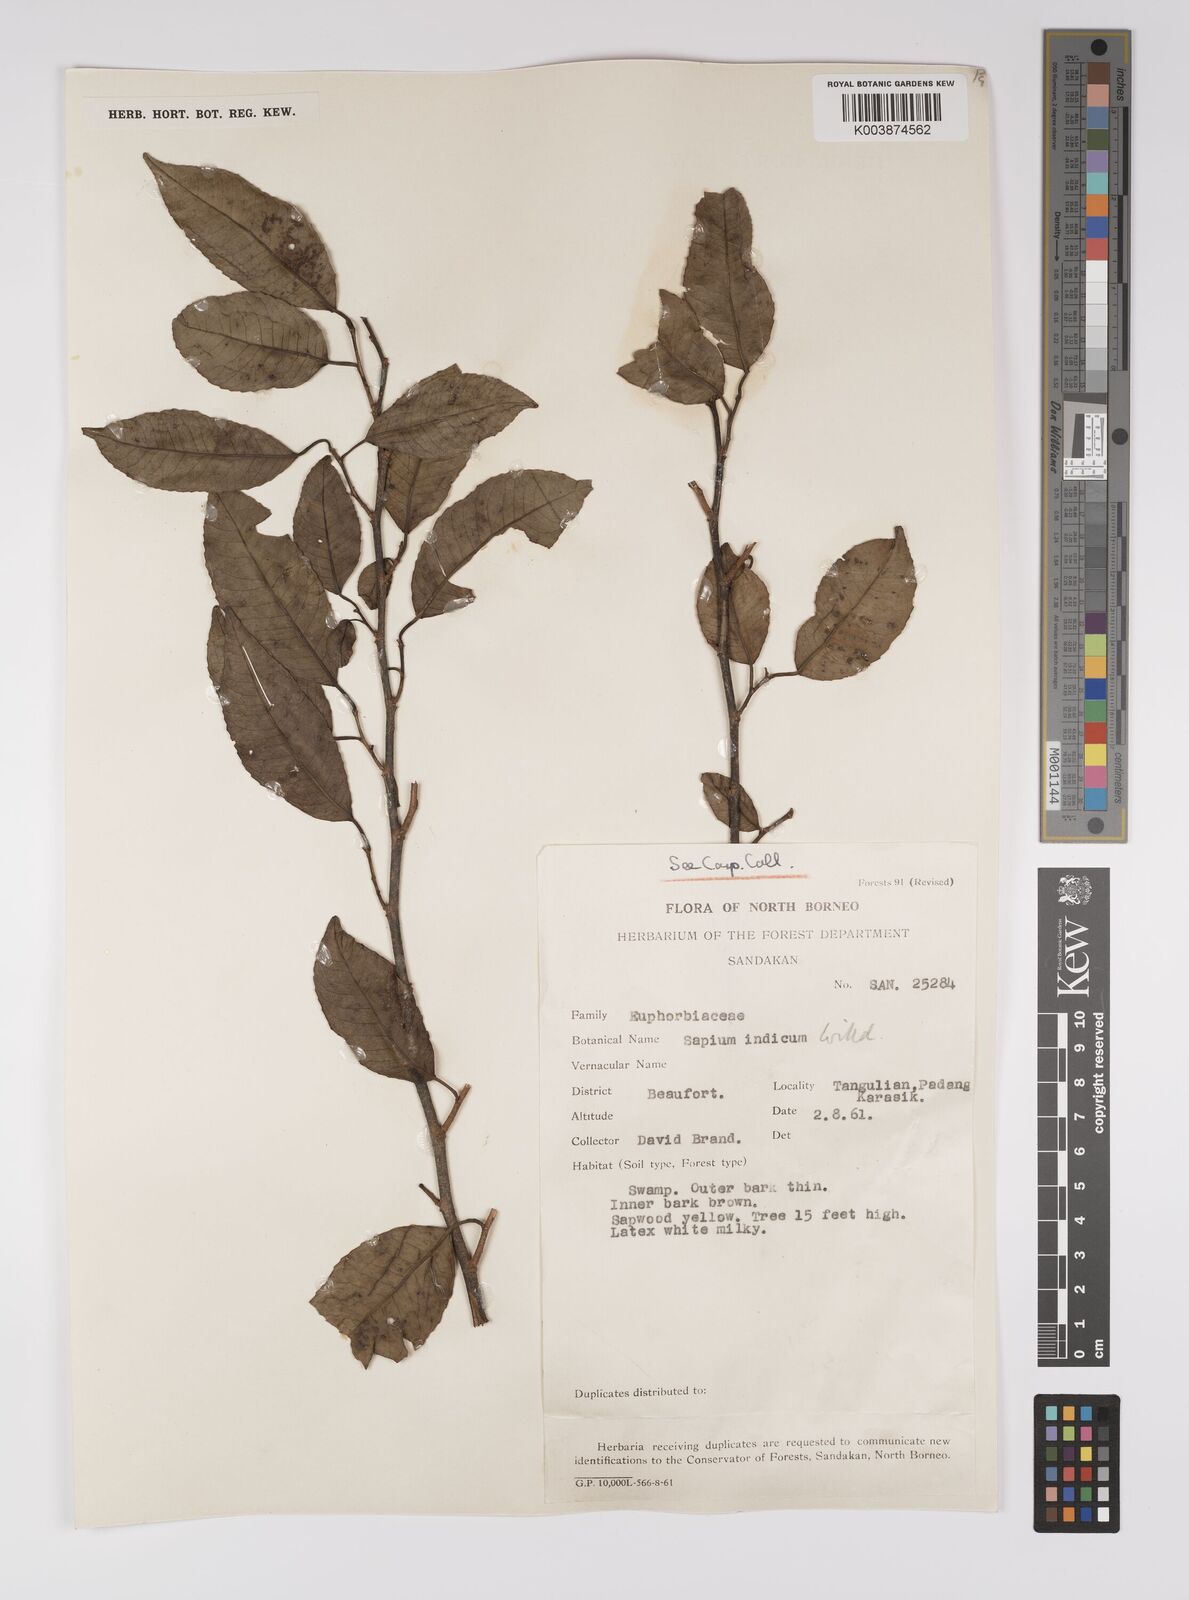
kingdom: Plantae
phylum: Tracheophyta
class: Magnoliopsida
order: Malpighiales
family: Euphorbiaceae
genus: Shirakiopsis
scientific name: Shirakiopsis indica
